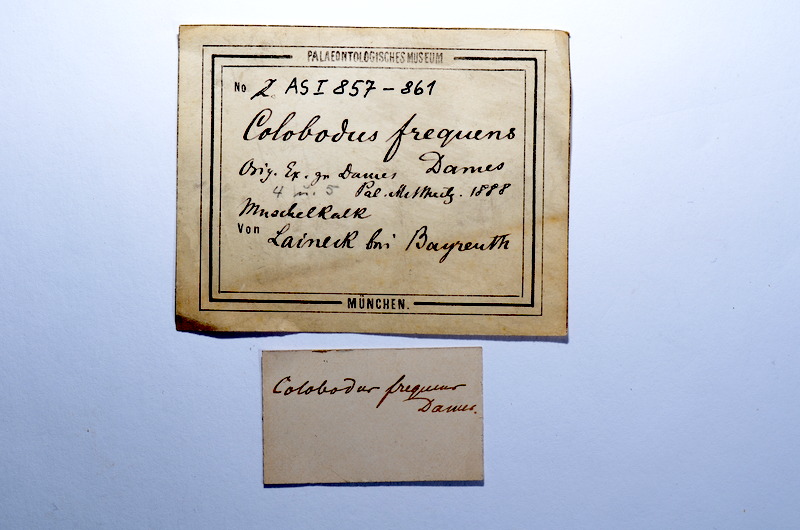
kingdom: Animalia
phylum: Chordata
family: Colobodontidae
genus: Colobodus
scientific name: Colobodus frequens
